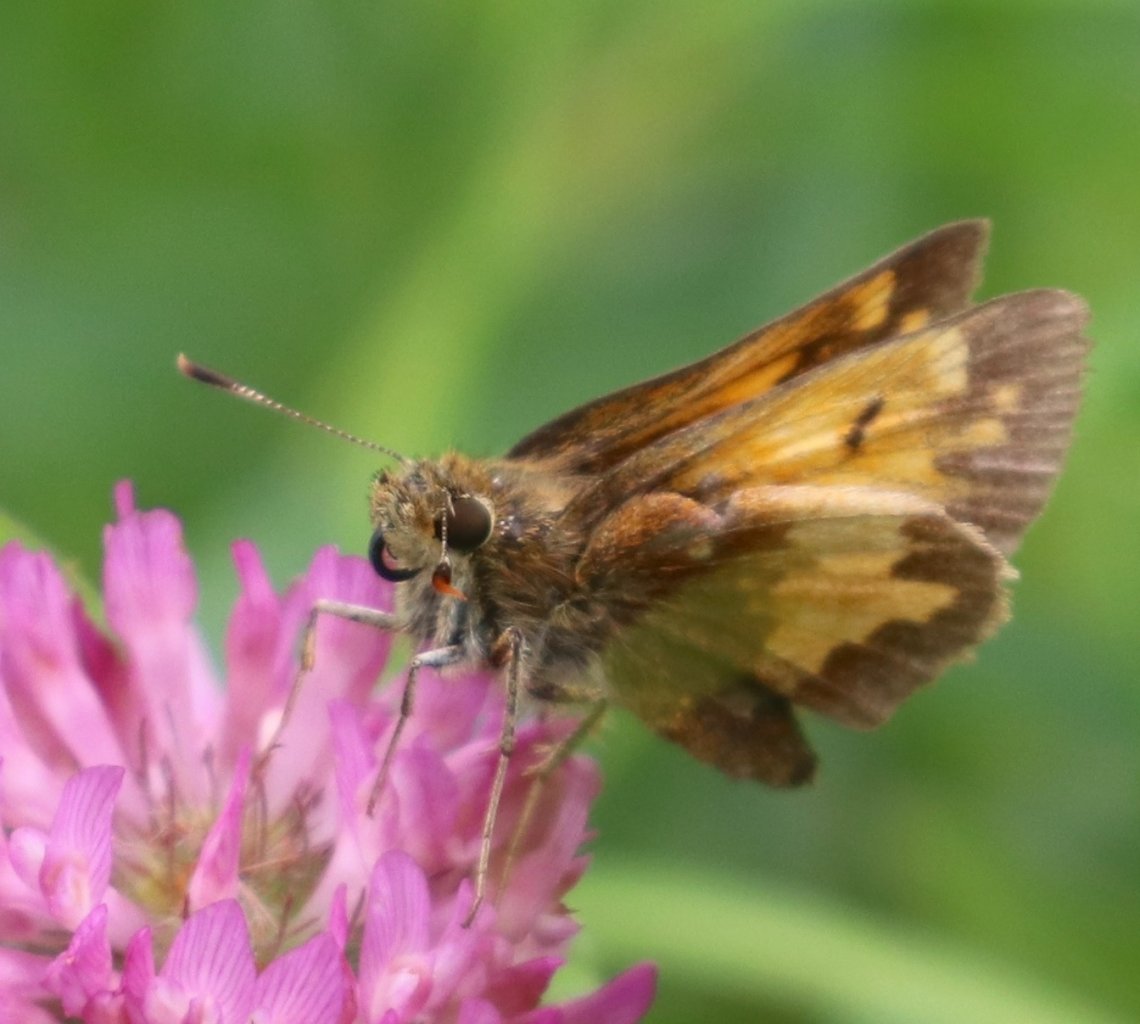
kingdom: Animalia
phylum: Arthropoda
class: Insecta
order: Lepidoptera
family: Hesperiidae
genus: Lon
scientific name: Lon hobomok
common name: Hobomok Skipper
